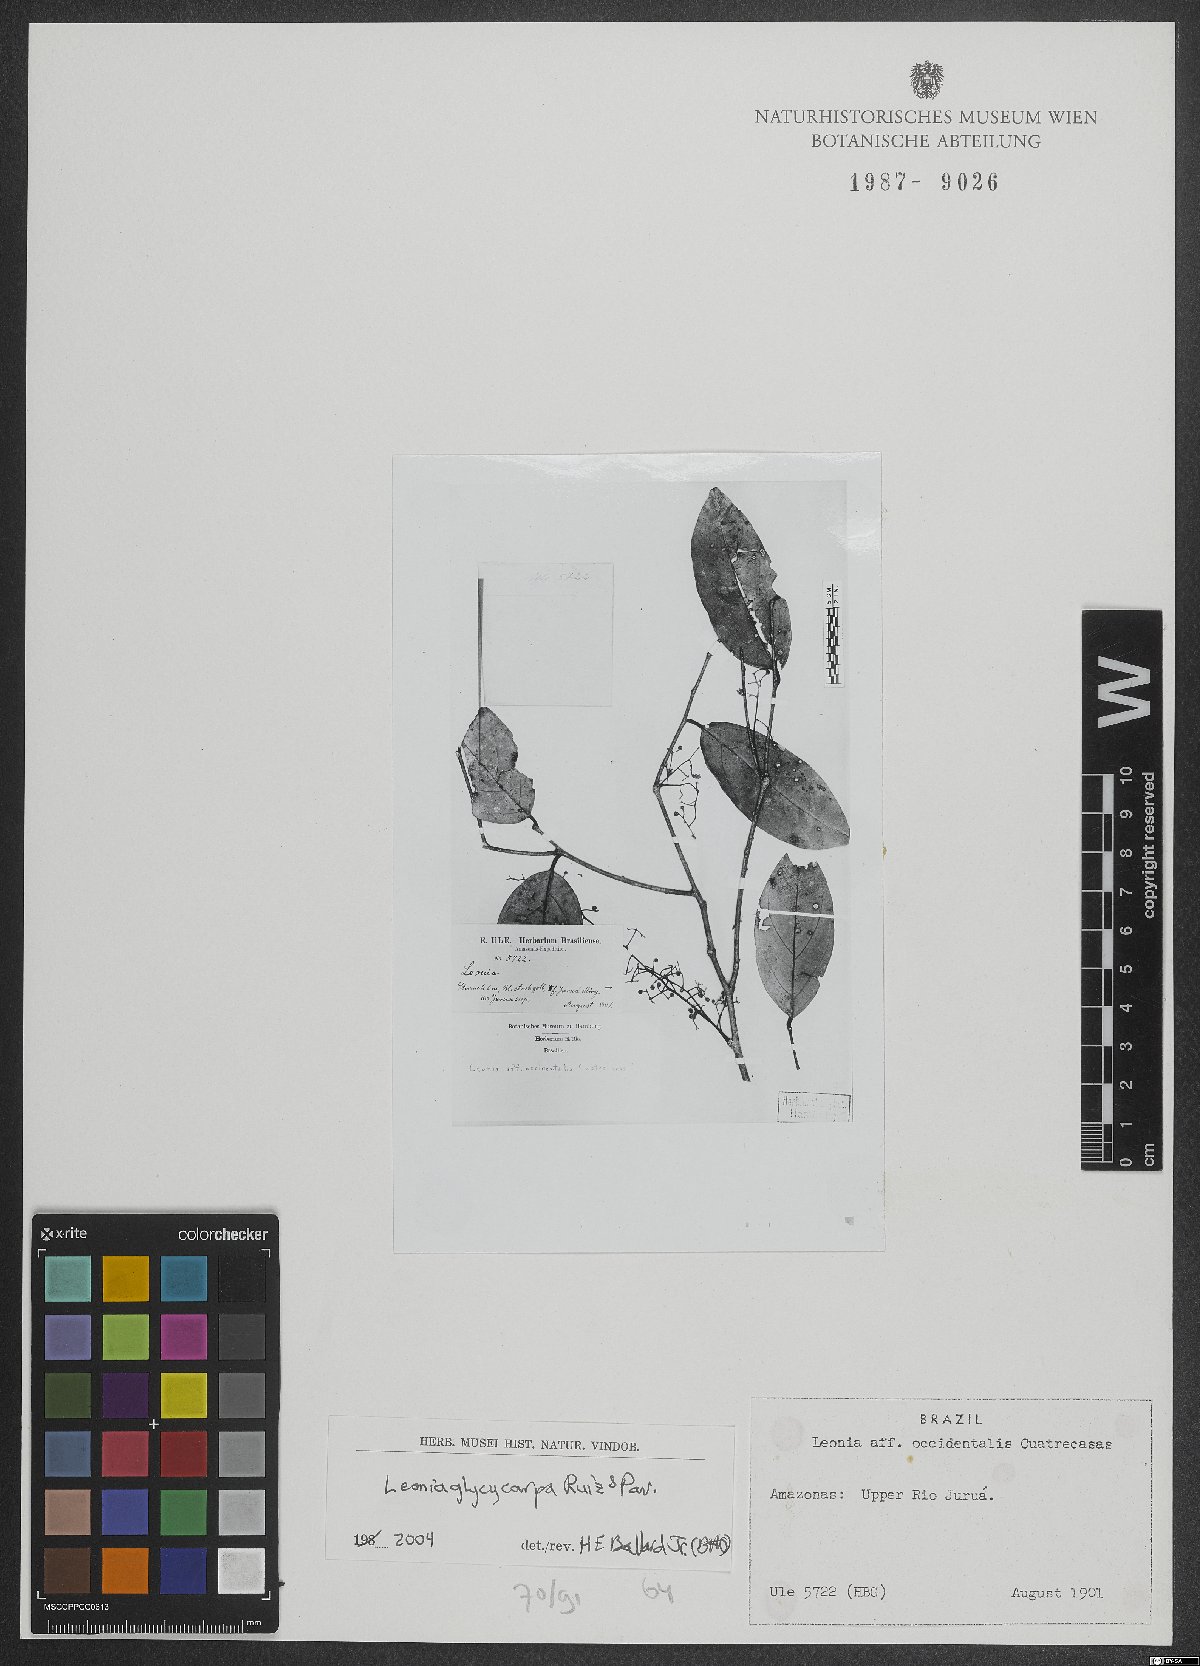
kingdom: Plantae
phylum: Tracheophyta
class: Magnoliopsida
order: Malpighiales
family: Violaceae
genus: Leonia
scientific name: Leonia glycycarpa
